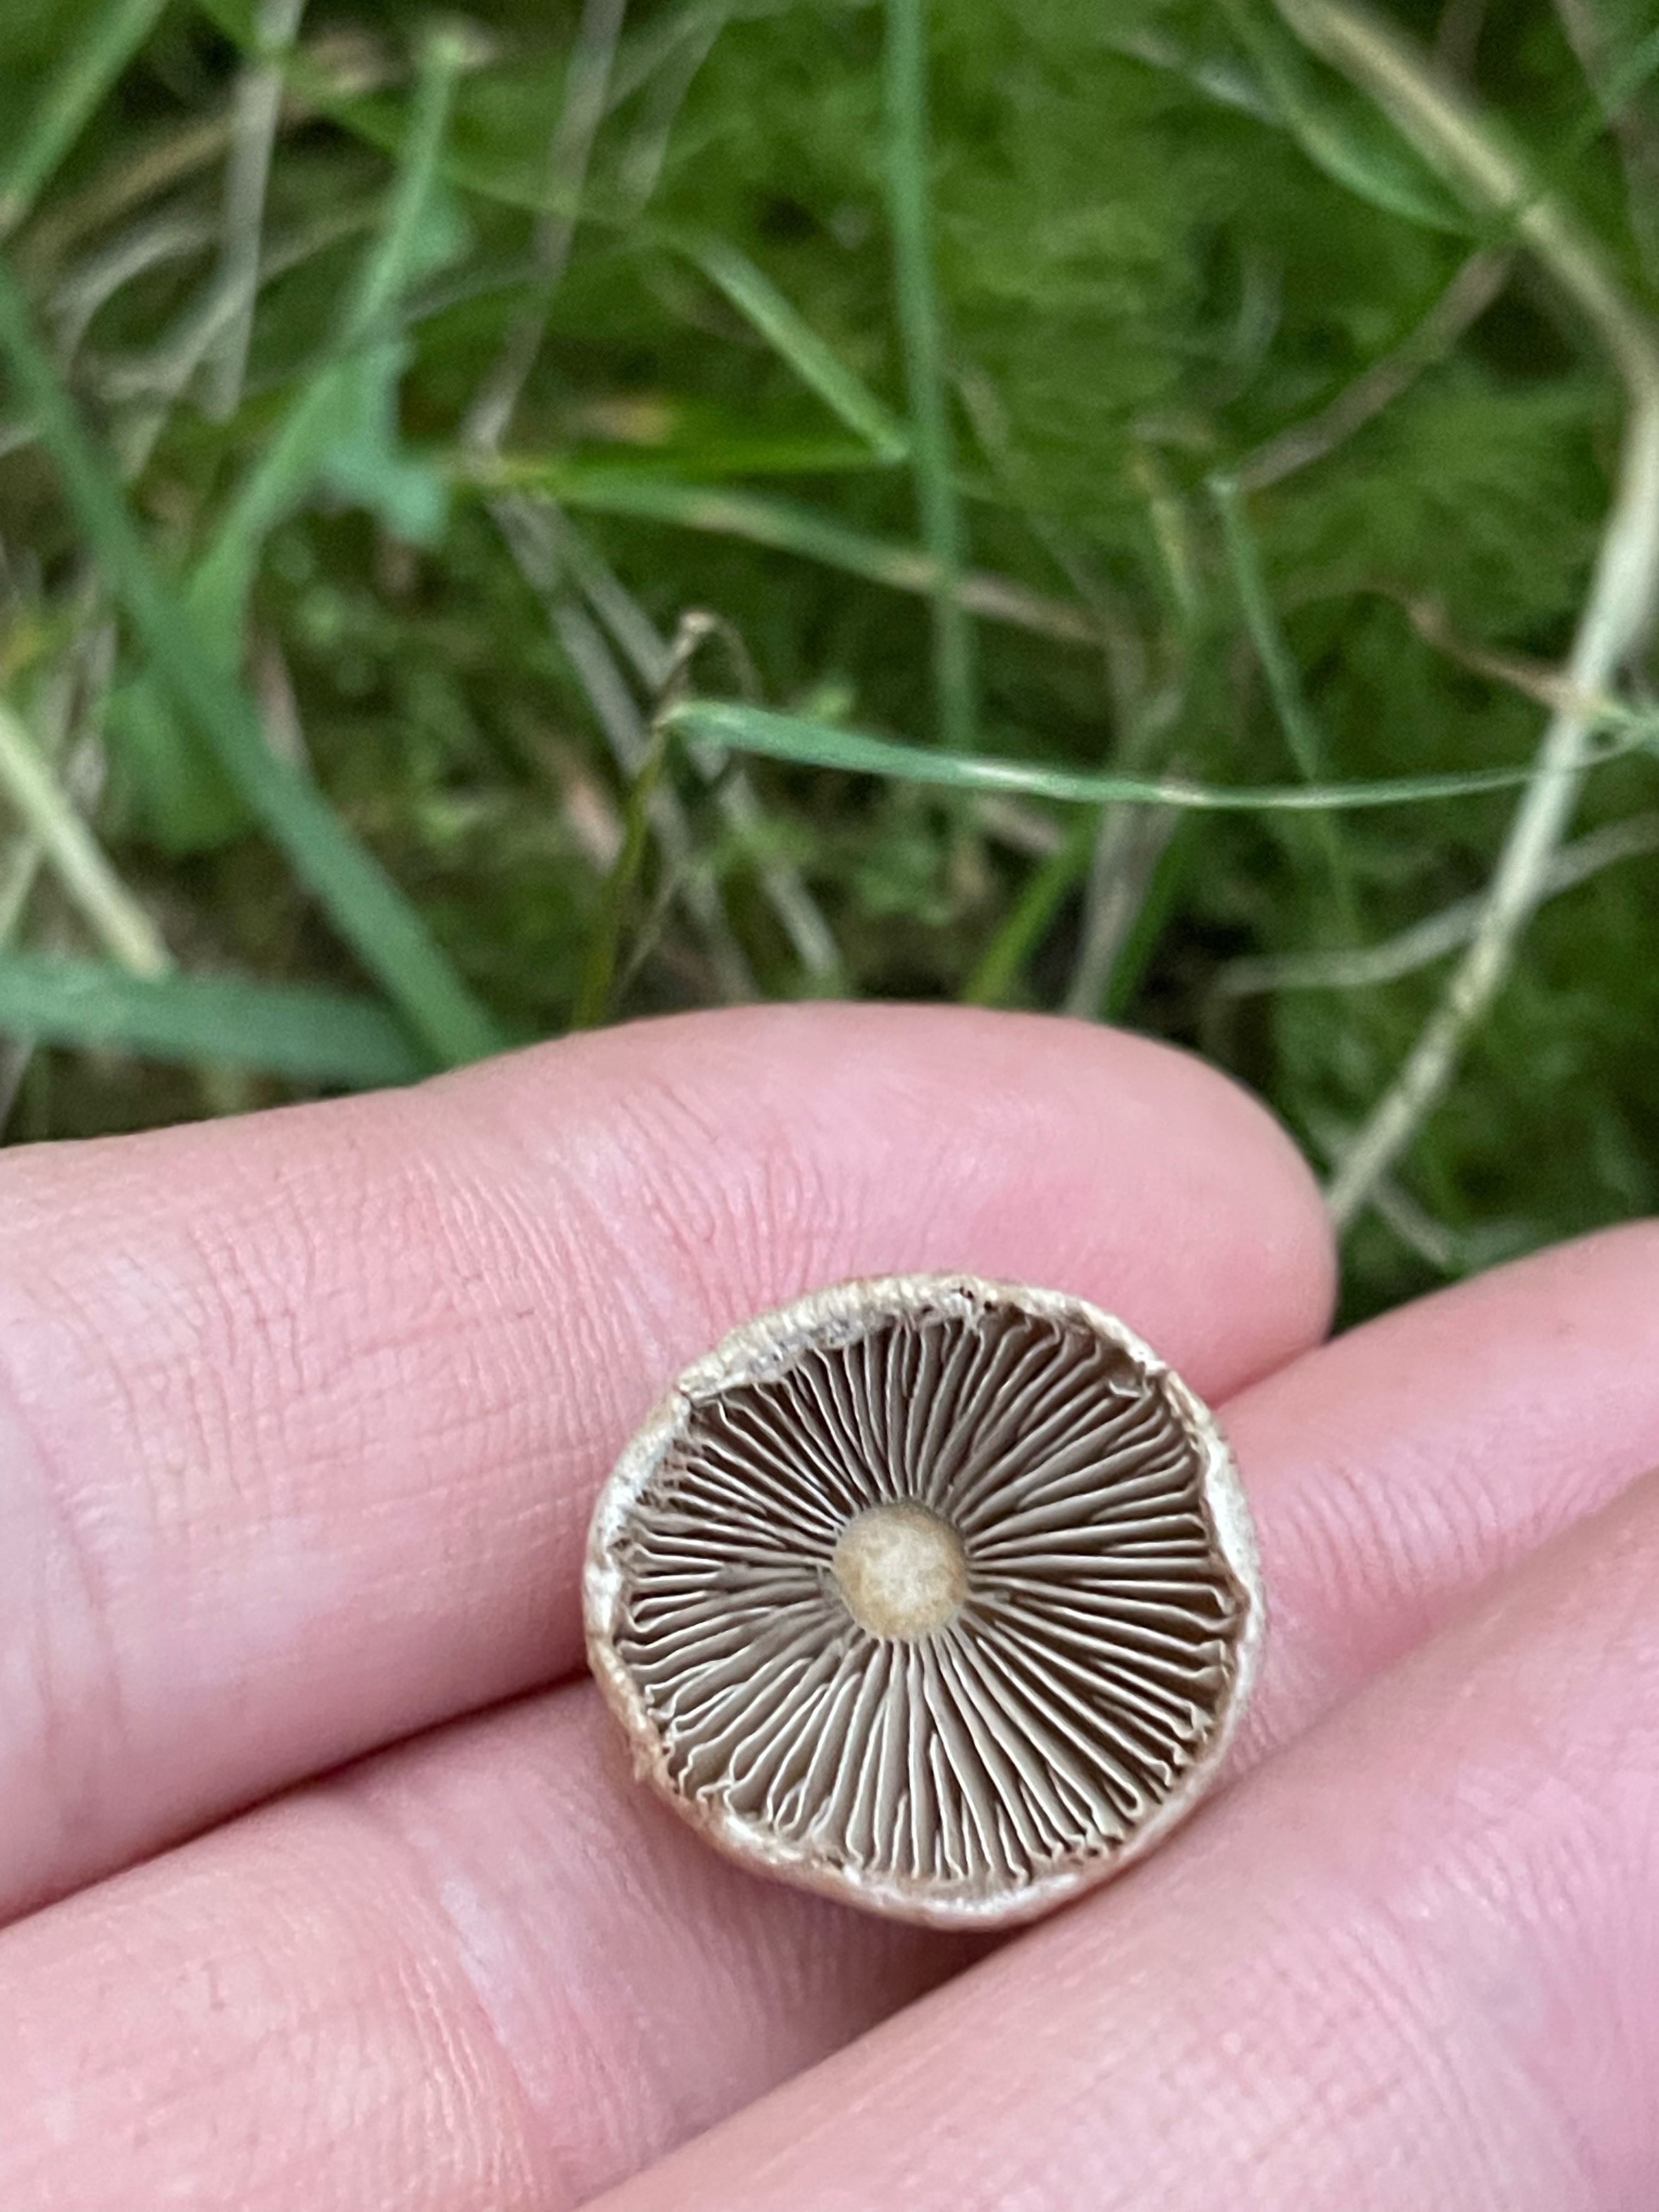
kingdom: Fungi
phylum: Basidiomycota
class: Agaricomycetes
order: Agaricales
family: Inocybaceae
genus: Inocybe
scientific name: Inocybe
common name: trævlhat
